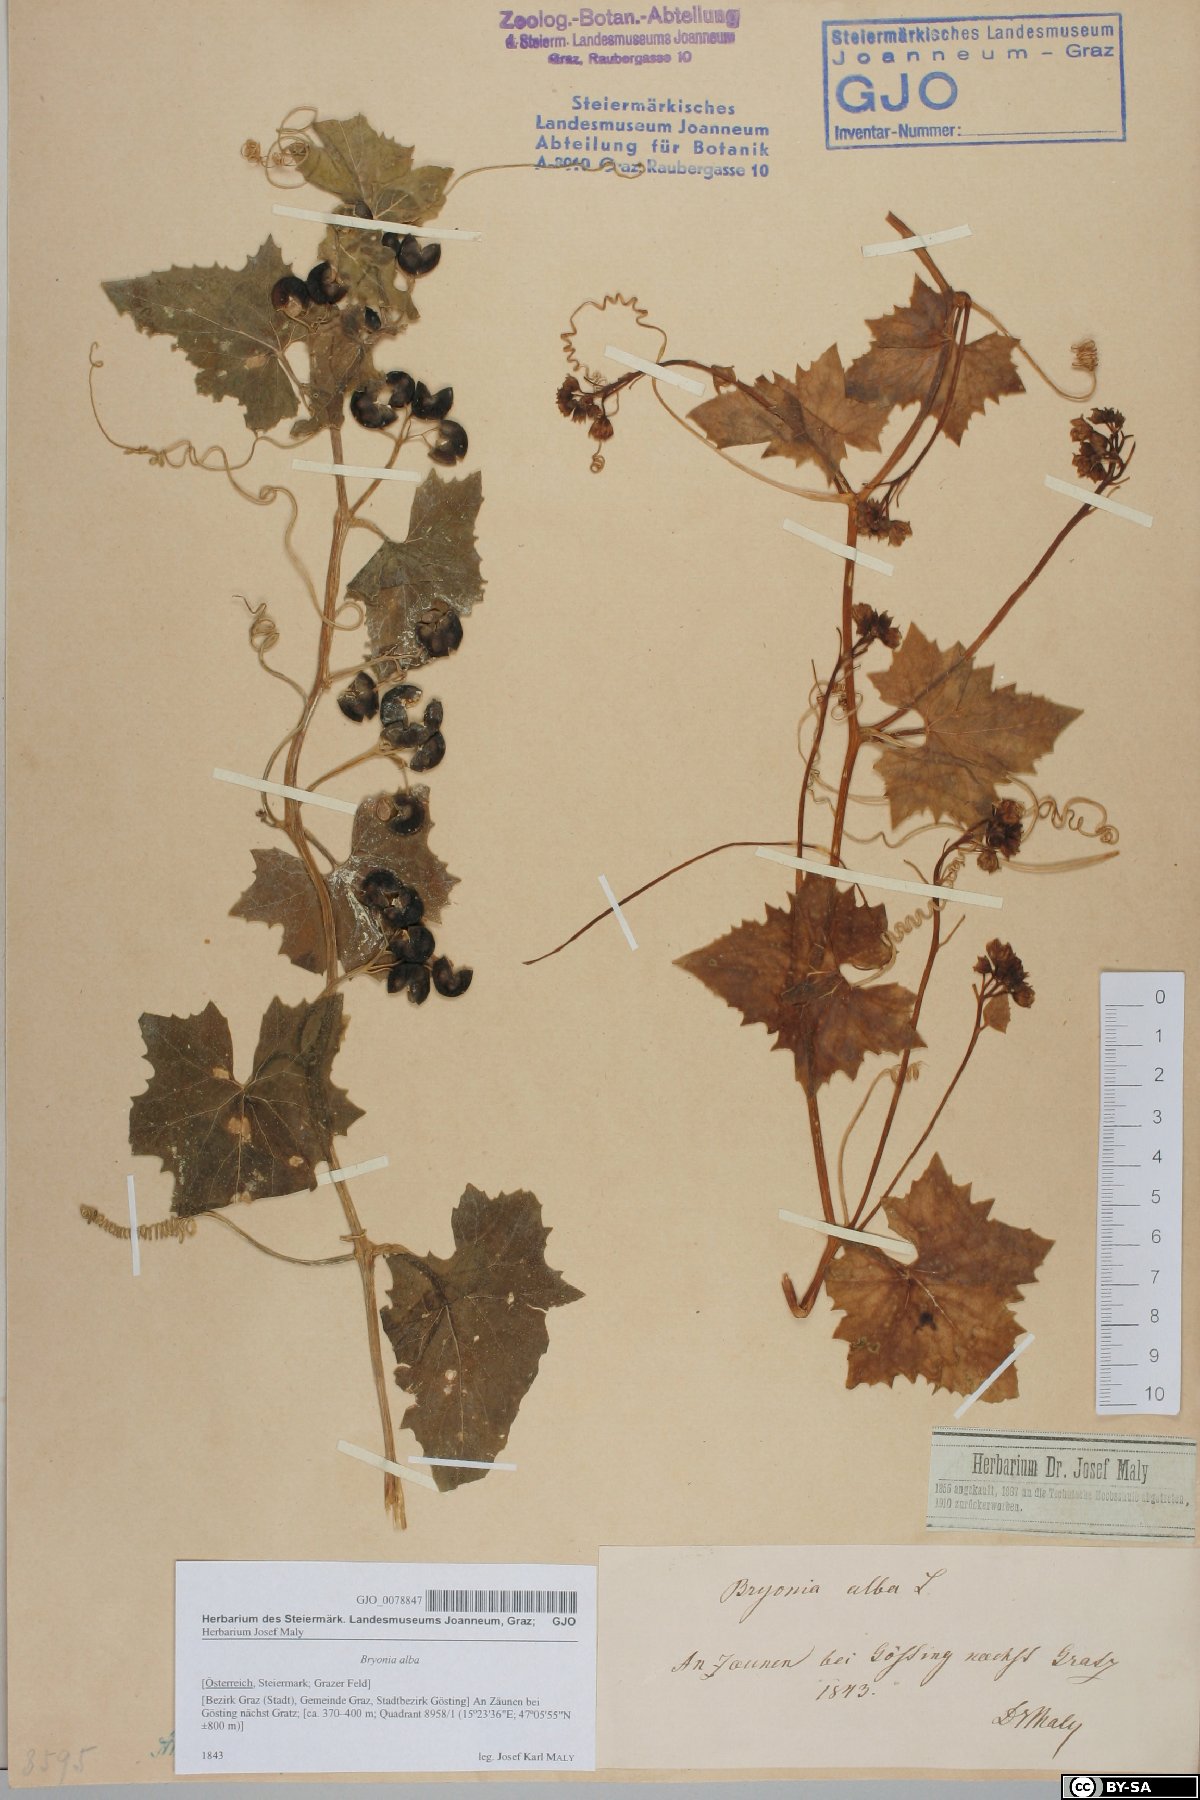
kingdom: Plantae
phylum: Tracheophyta
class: Magnoliopsida
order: Cucurbitales
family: Cucurbitaceae
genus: Bryonia
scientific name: Bryonia alba
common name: White bryony
